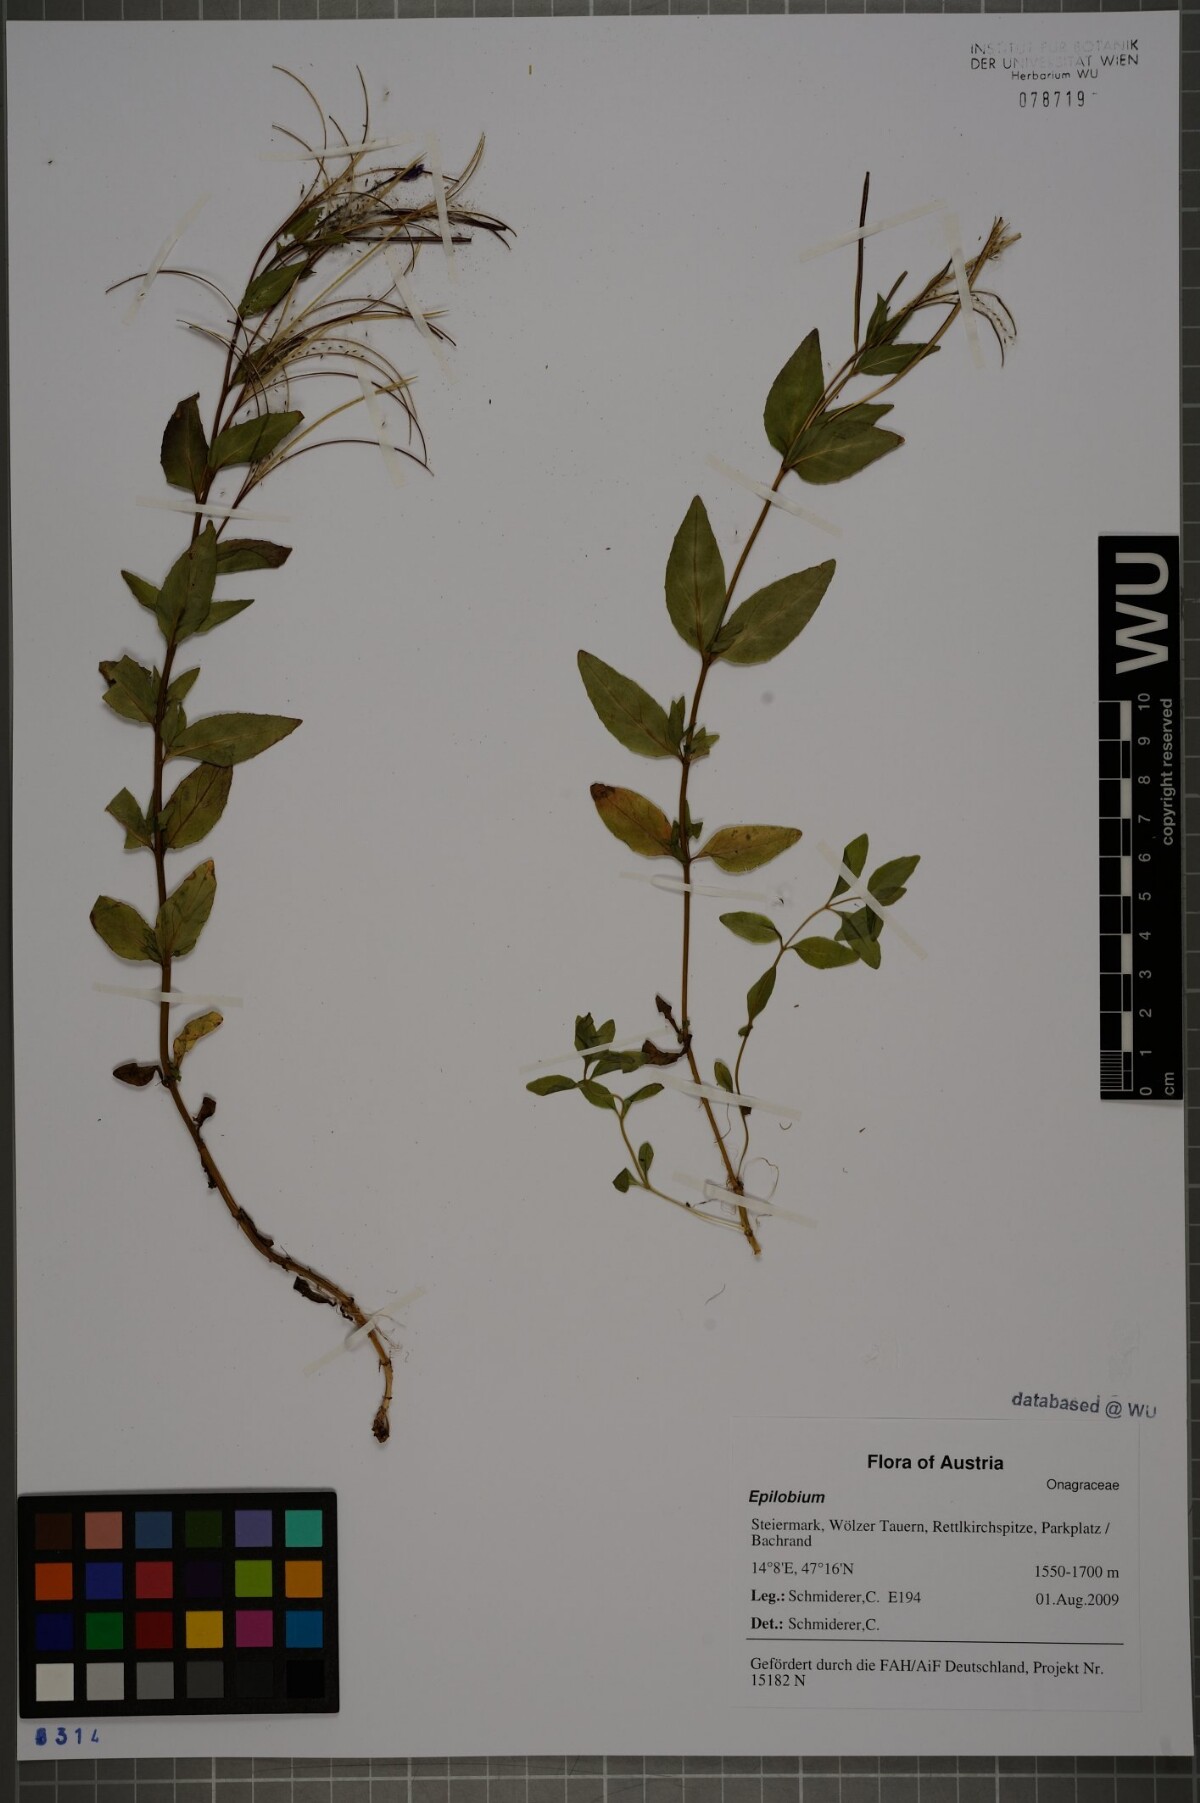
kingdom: Plantae
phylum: Tracheophyta
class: Magnoliopsida
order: Myrtales
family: Onagraceae
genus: Epilobium
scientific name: Epilobium alsinifolium
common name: Chickweed willowherb
